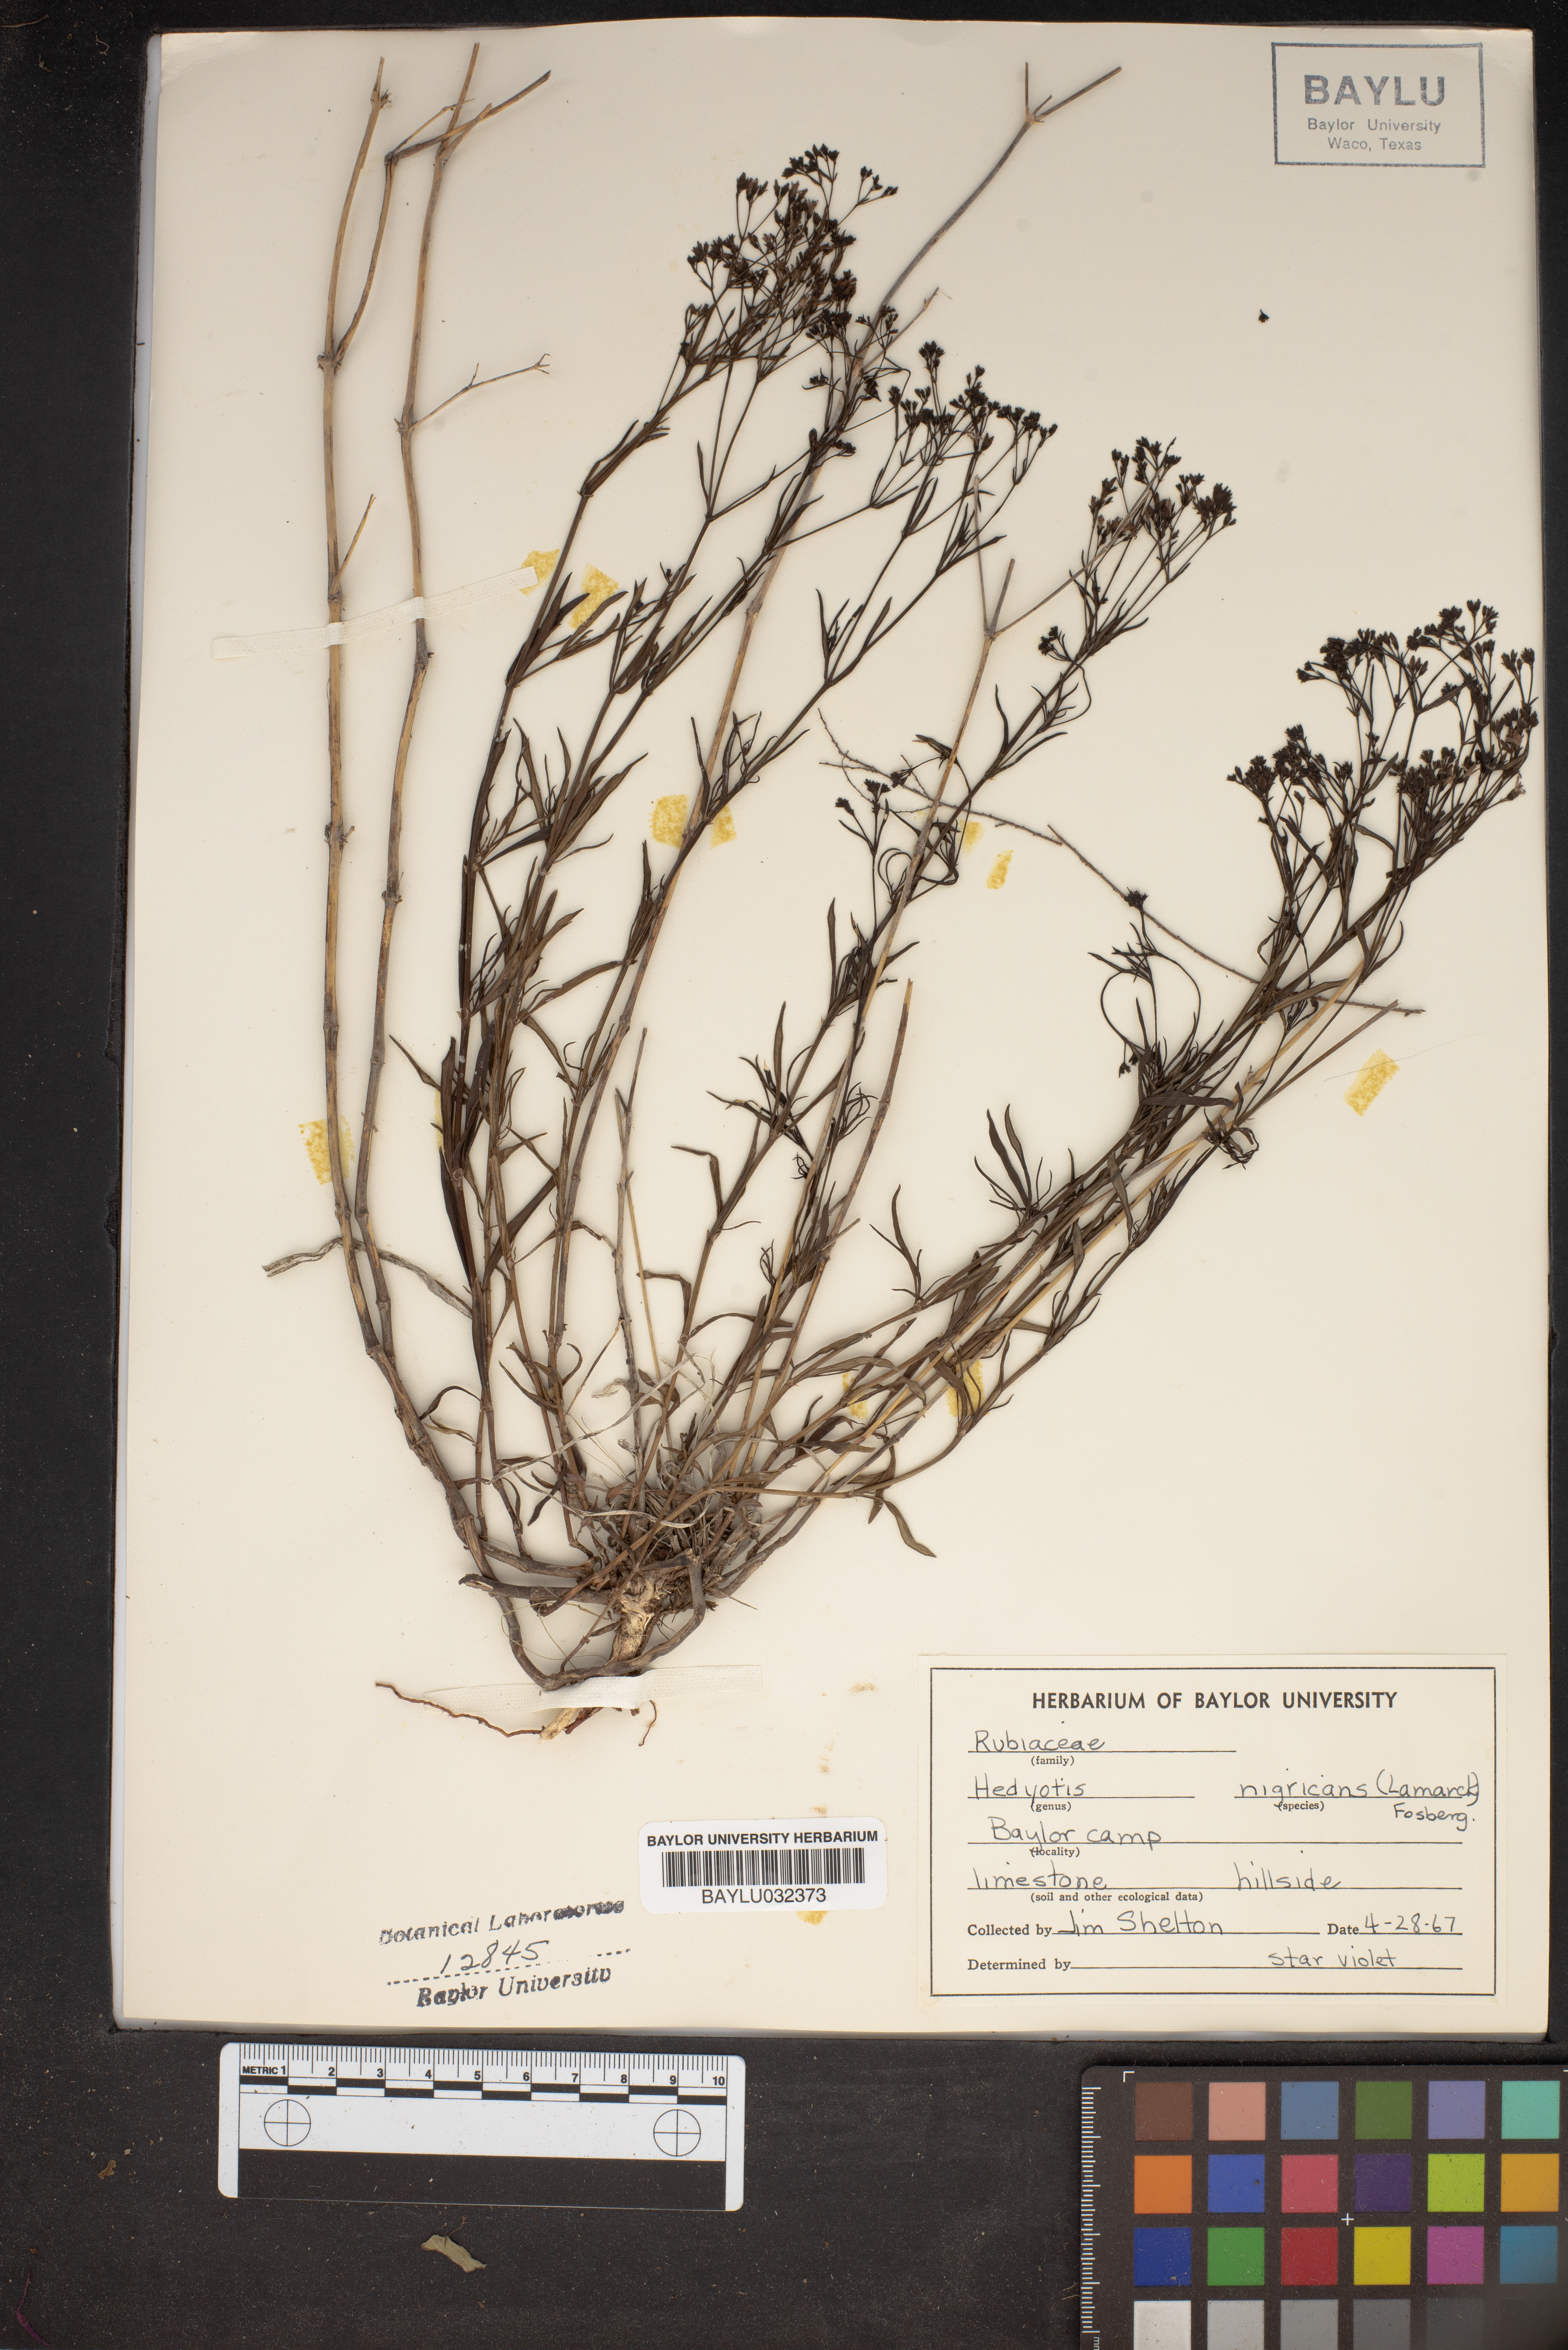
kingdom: Plantae
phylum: Tracheophyta
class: Magnoliopsida
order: Gentianales
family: Rubiaceae
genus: Stenaria
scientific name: Stenaria nigricans
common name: Diamondflowers
